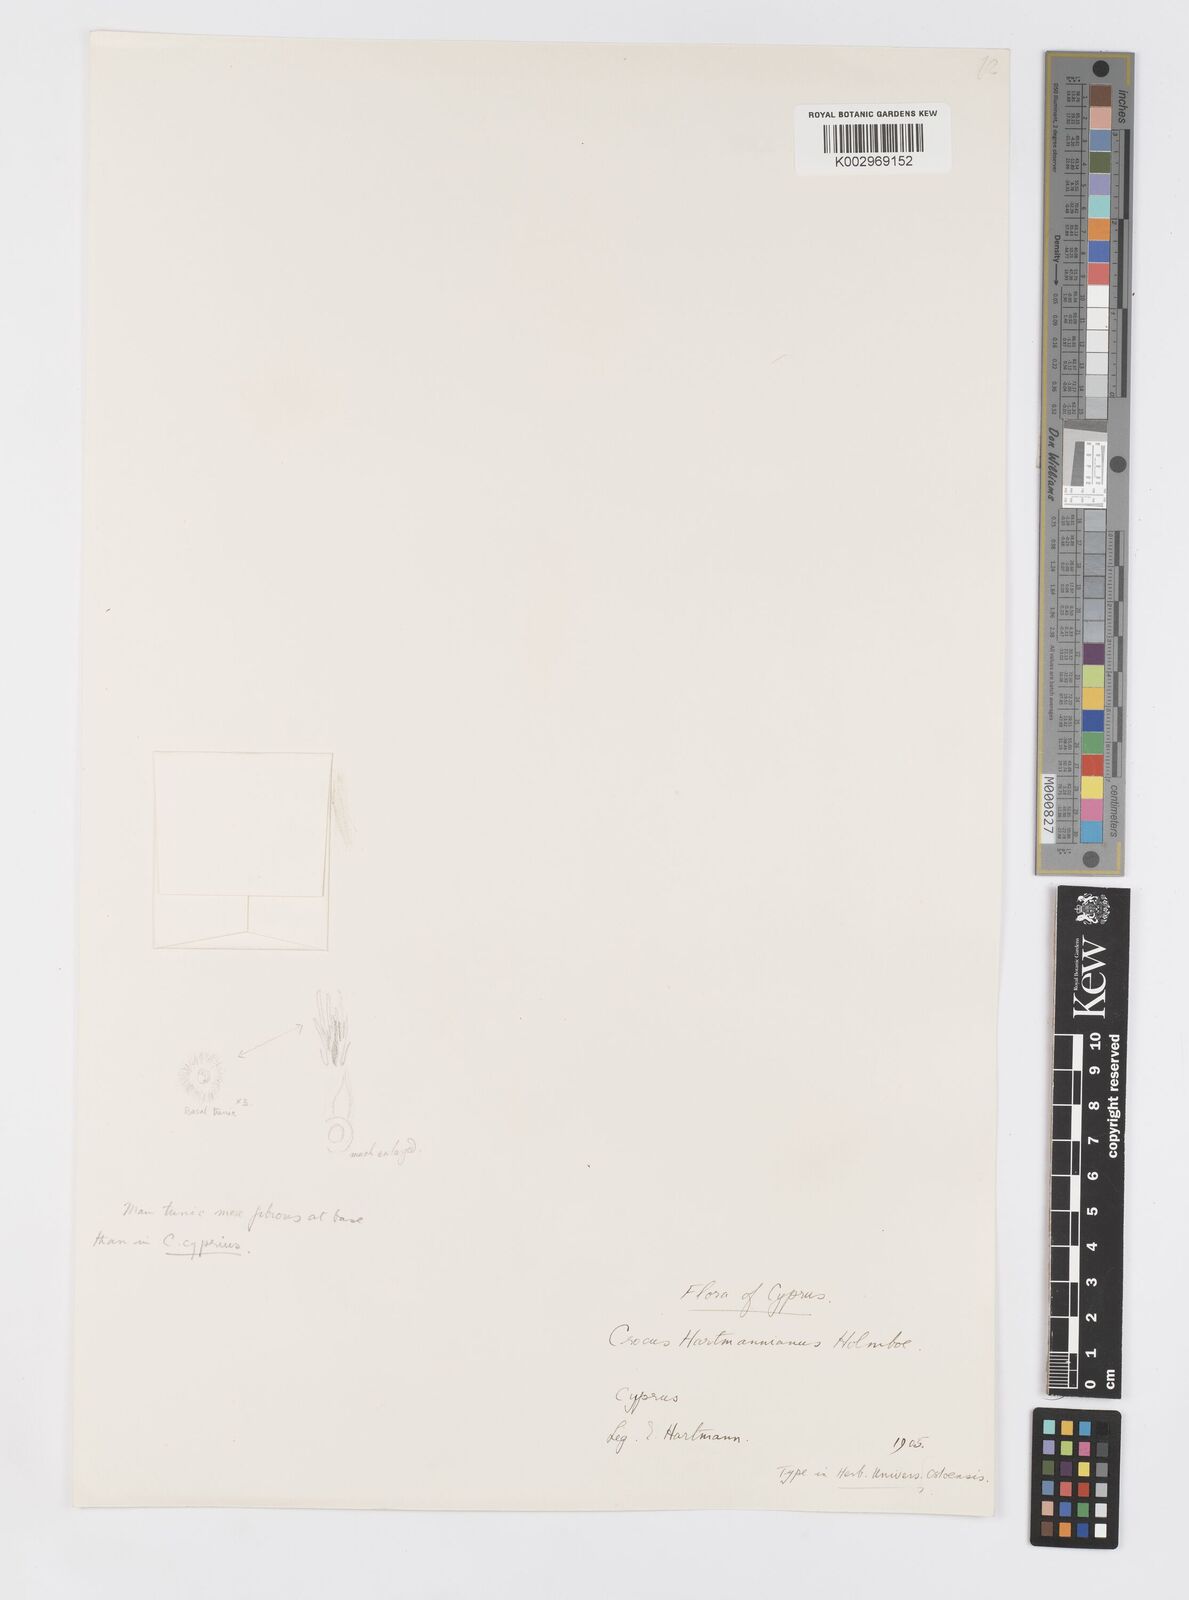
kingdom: Plantae
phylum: Tracheophyta
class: Liliopsida
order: Asparagales
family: Iridaceae
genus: Crocus
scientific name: Crocus hartmannianus
